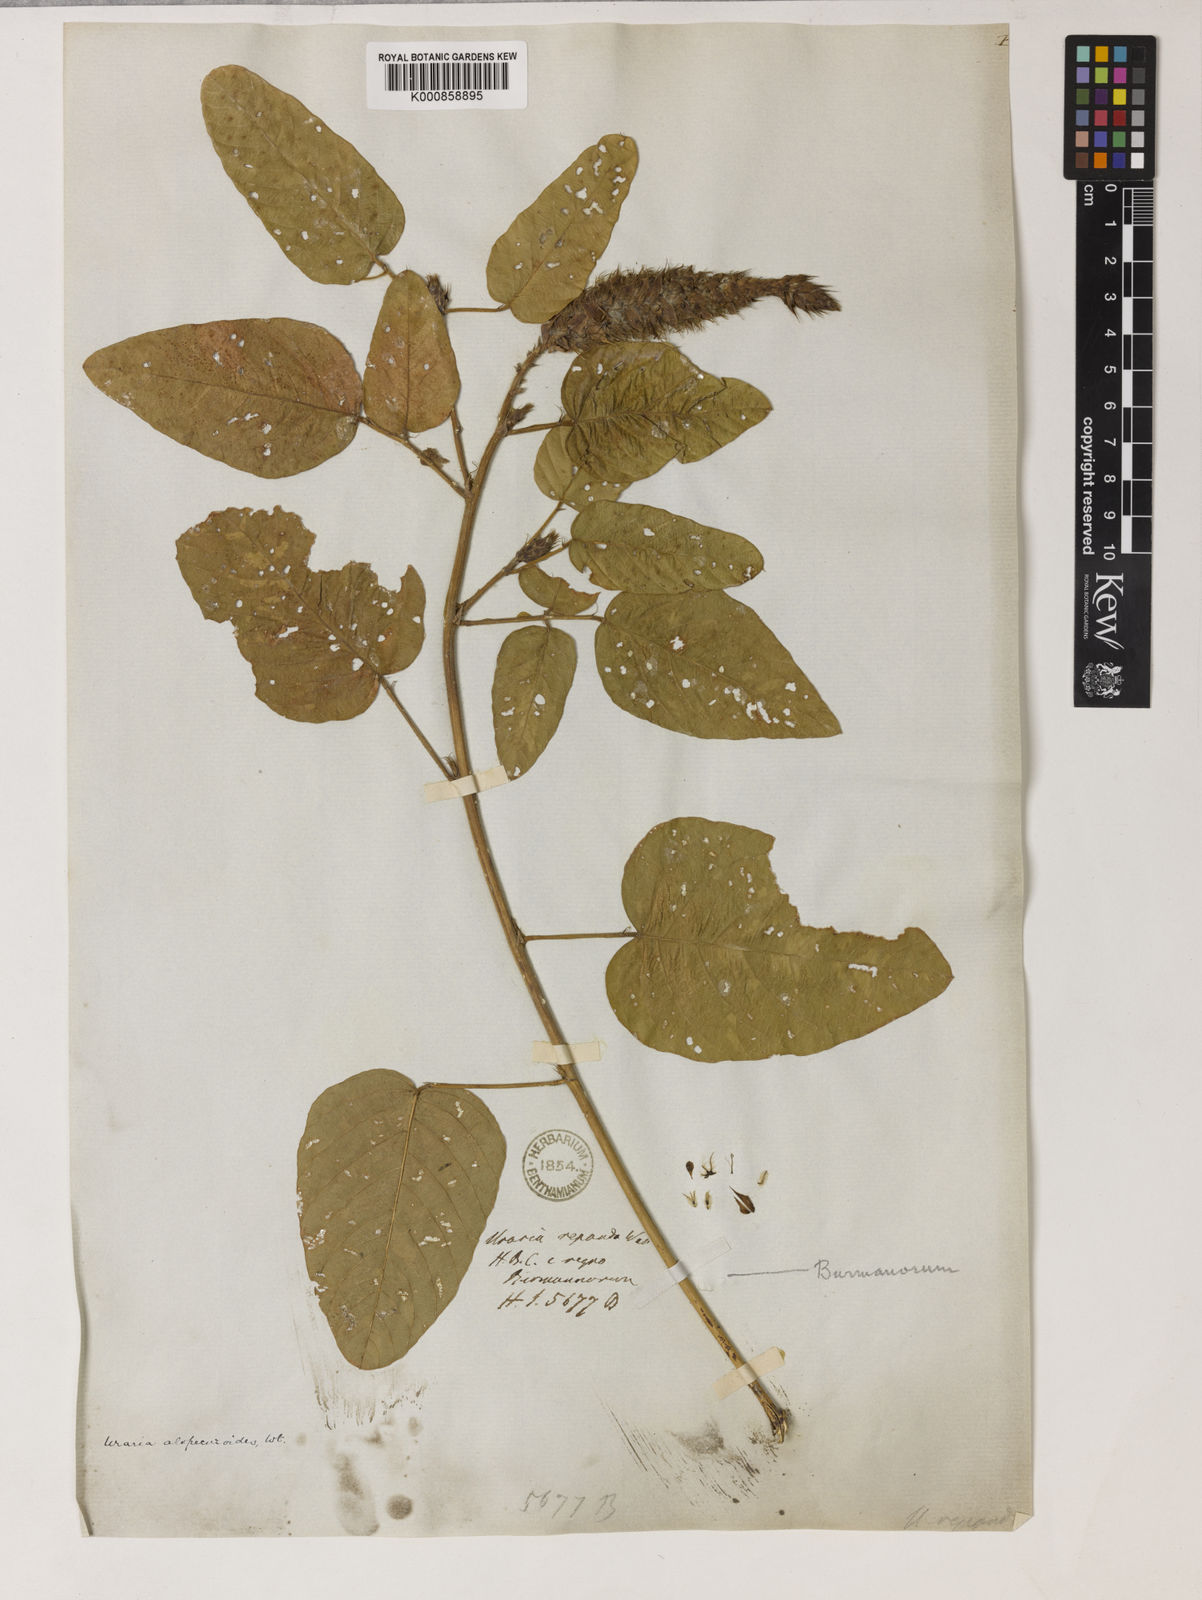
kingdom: Plantae
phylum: Tracheophyta
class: Magnoliopsida
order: Fabales
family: Fabaceae
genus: Uraria
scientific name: Uraria
